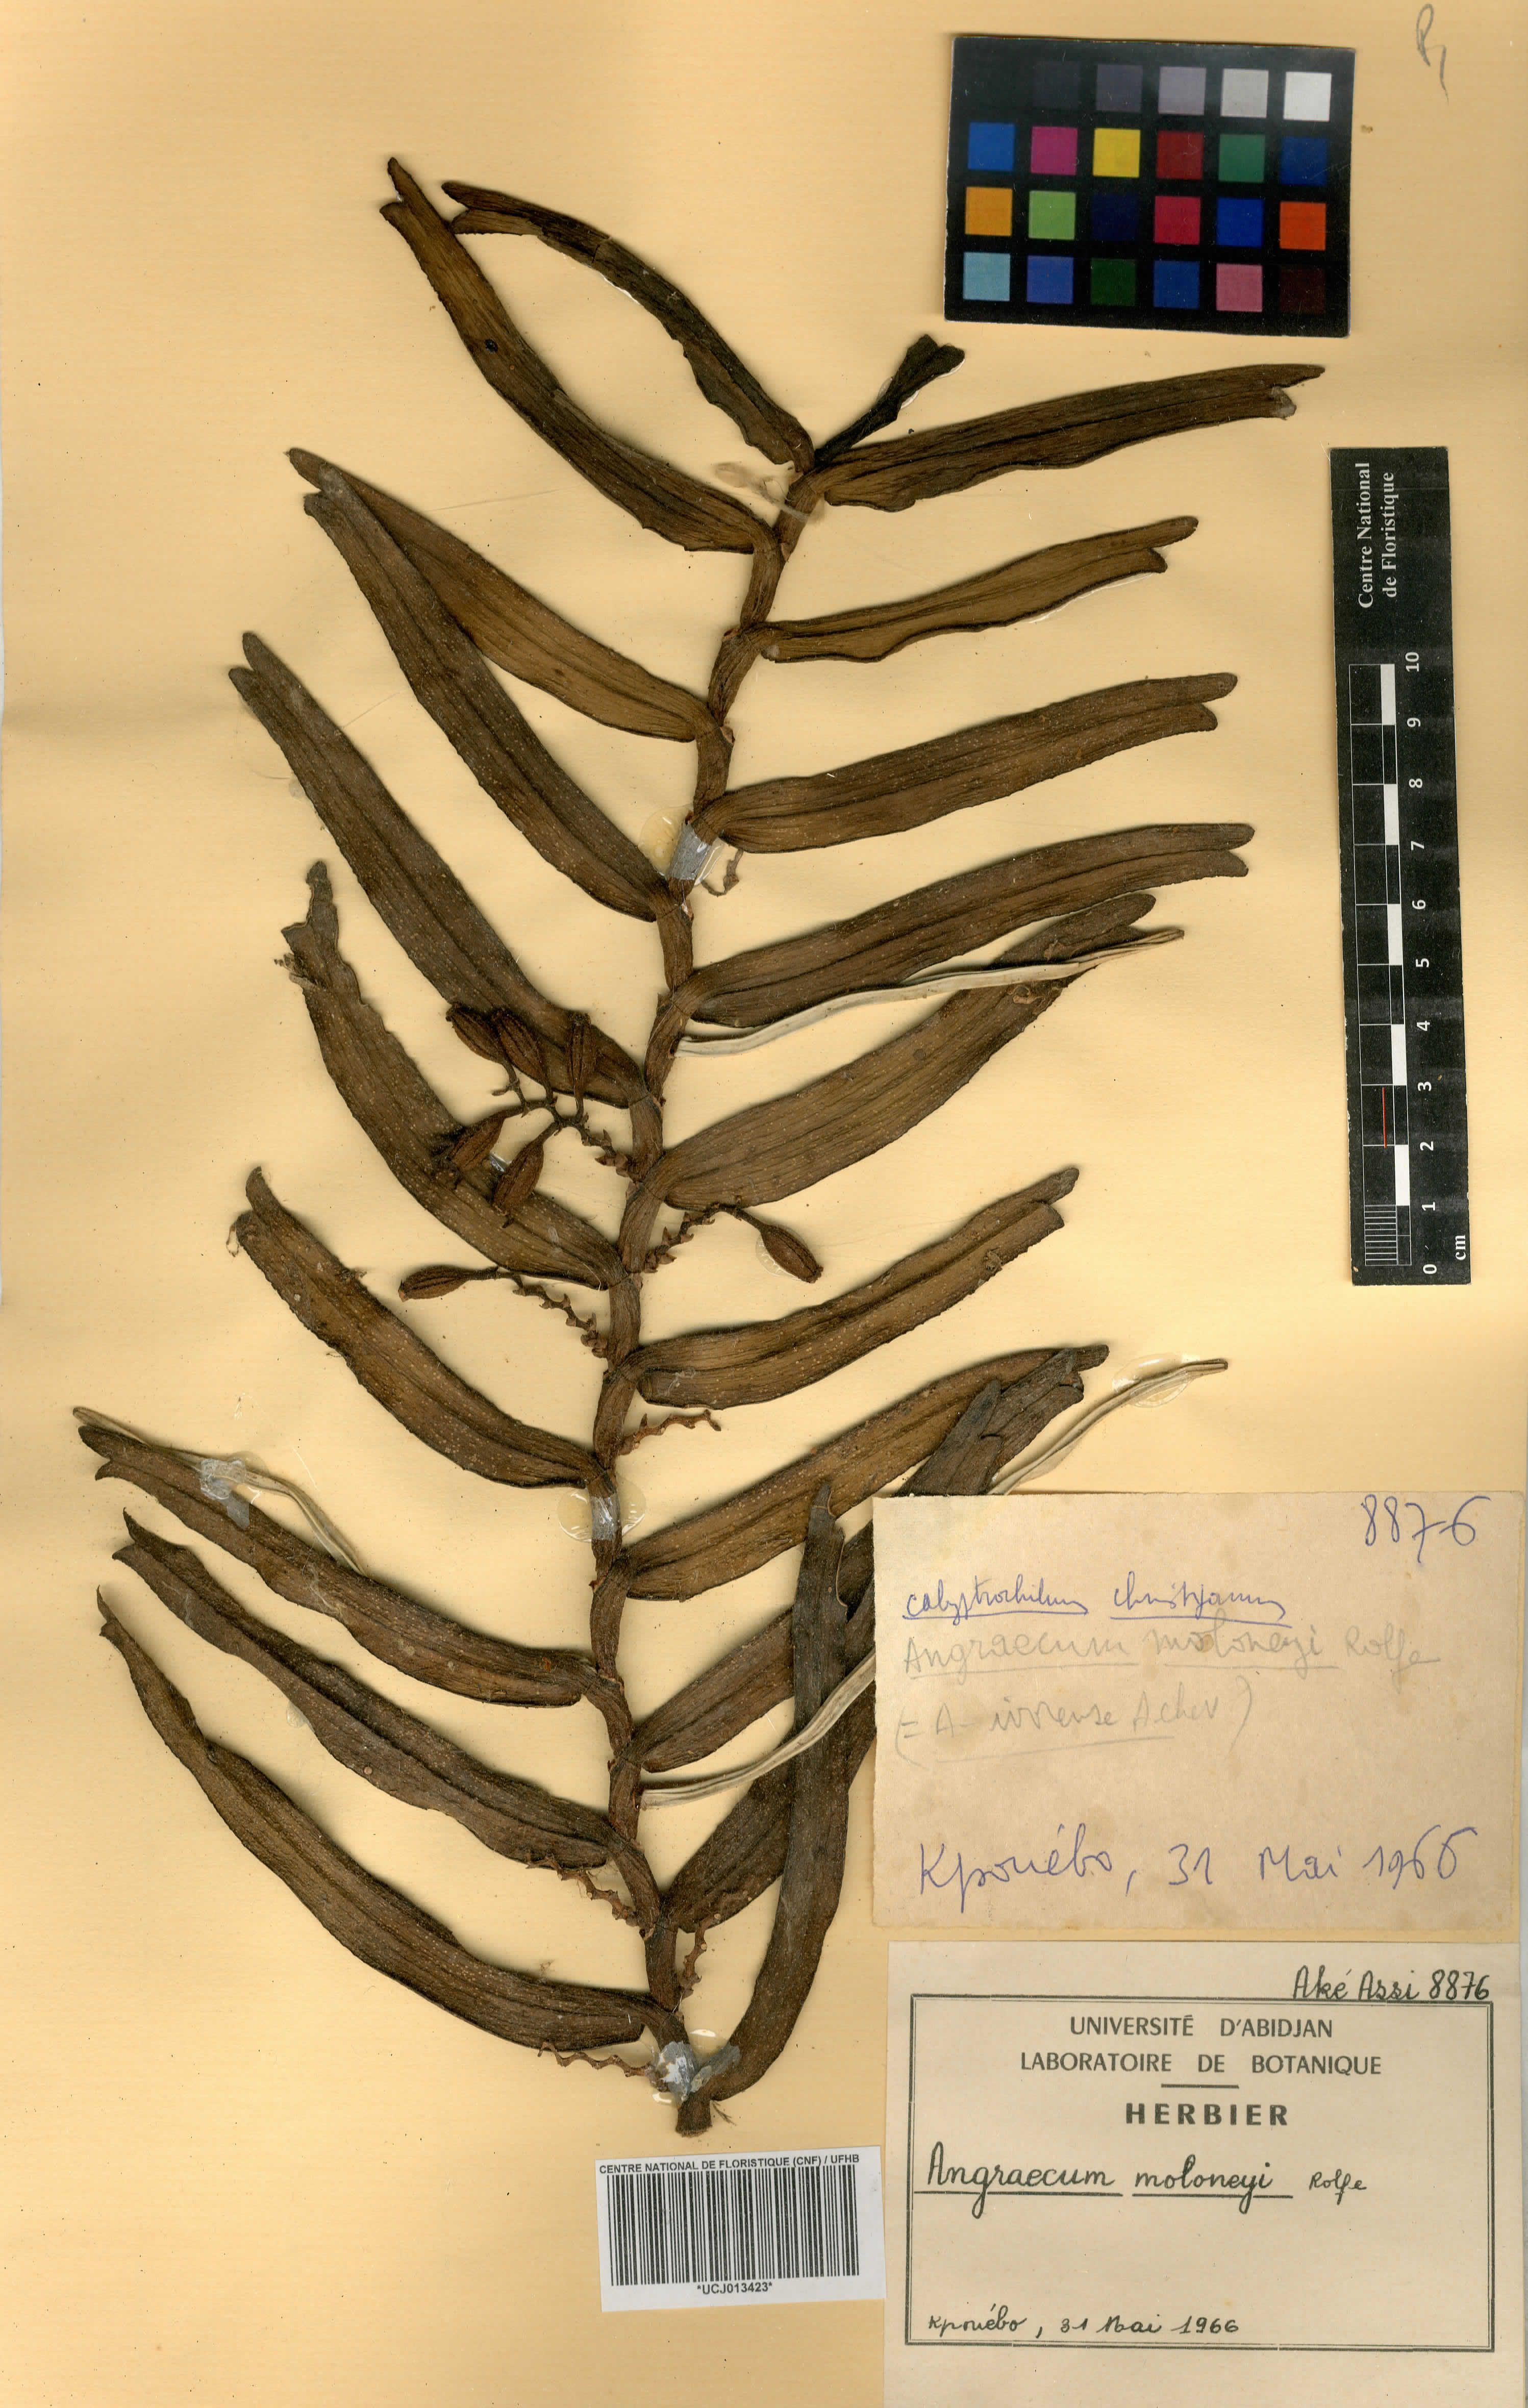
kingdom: Plantae
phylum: Tracheophyta
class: Liliopsida
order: Asparagales
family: Orchidaceae
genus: Calyptrochilum
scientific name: Calyptrochilum christyanum
